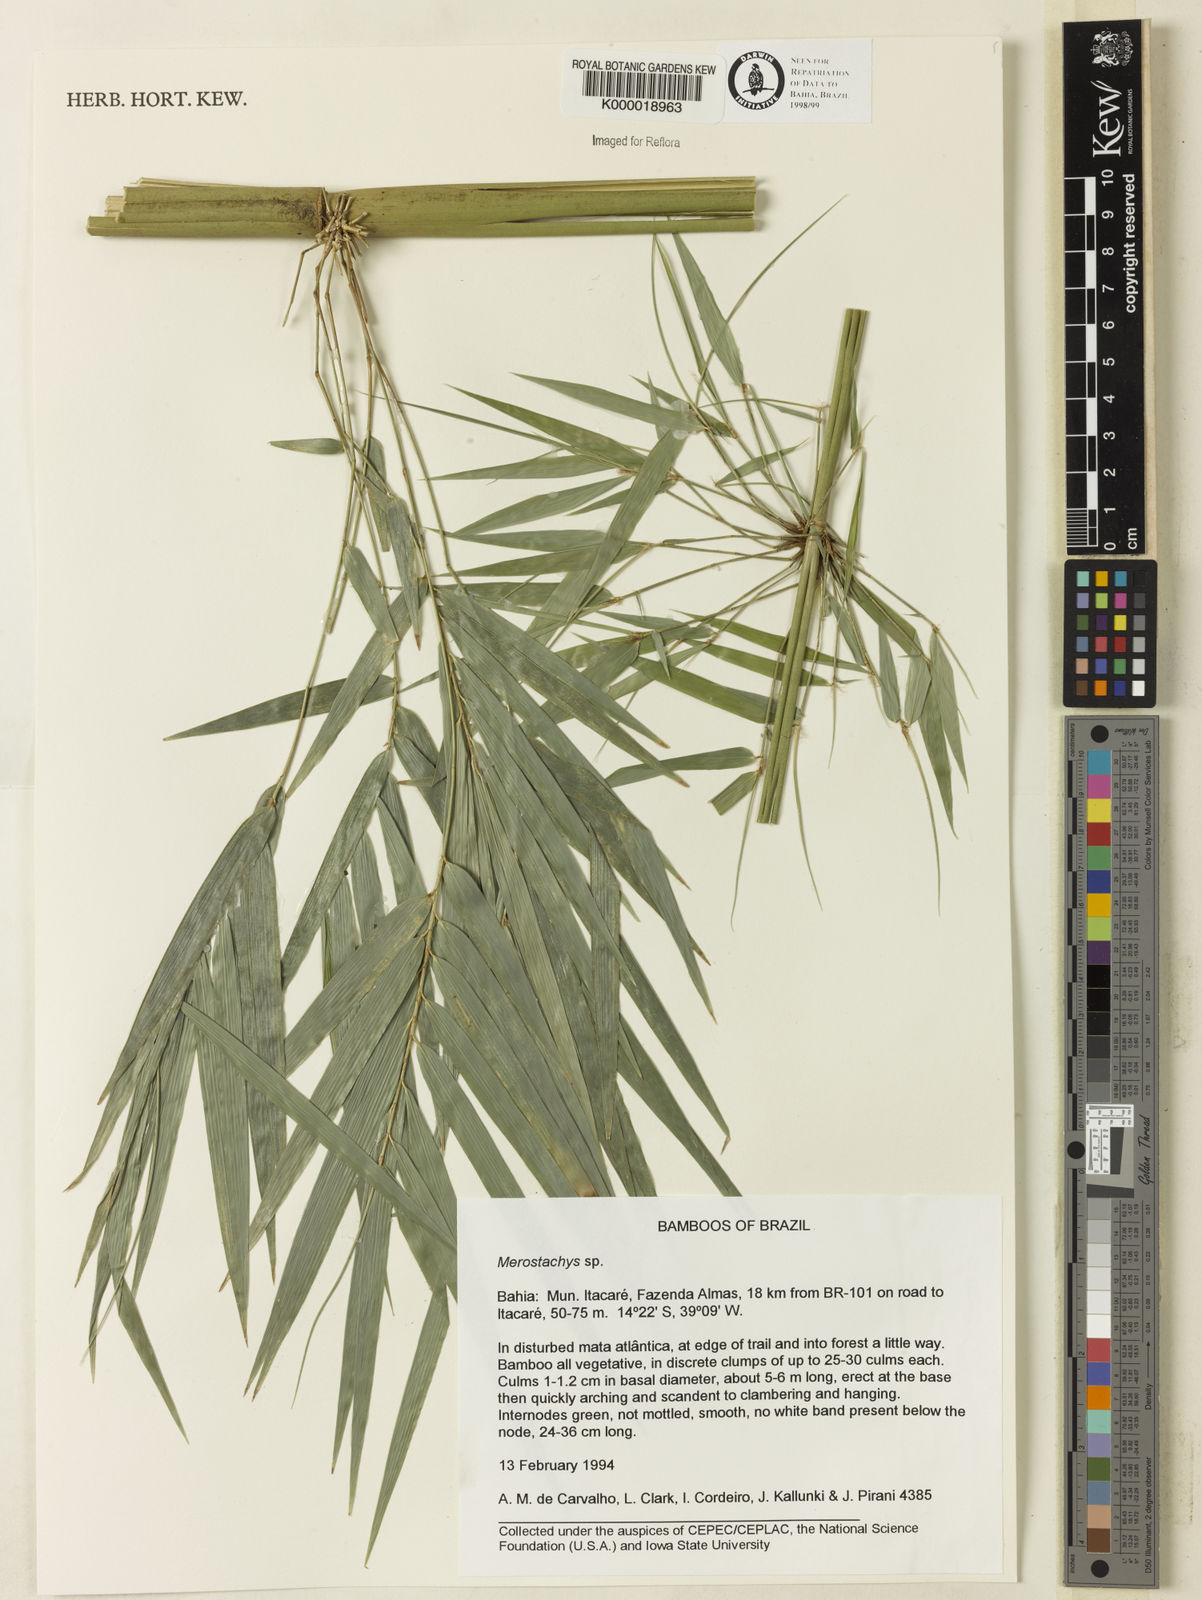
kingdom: Plantae
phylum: Tracheophyta
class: Liliopsida
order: Poales
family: Poaceae
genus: Merostachys
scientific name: Merostachys
